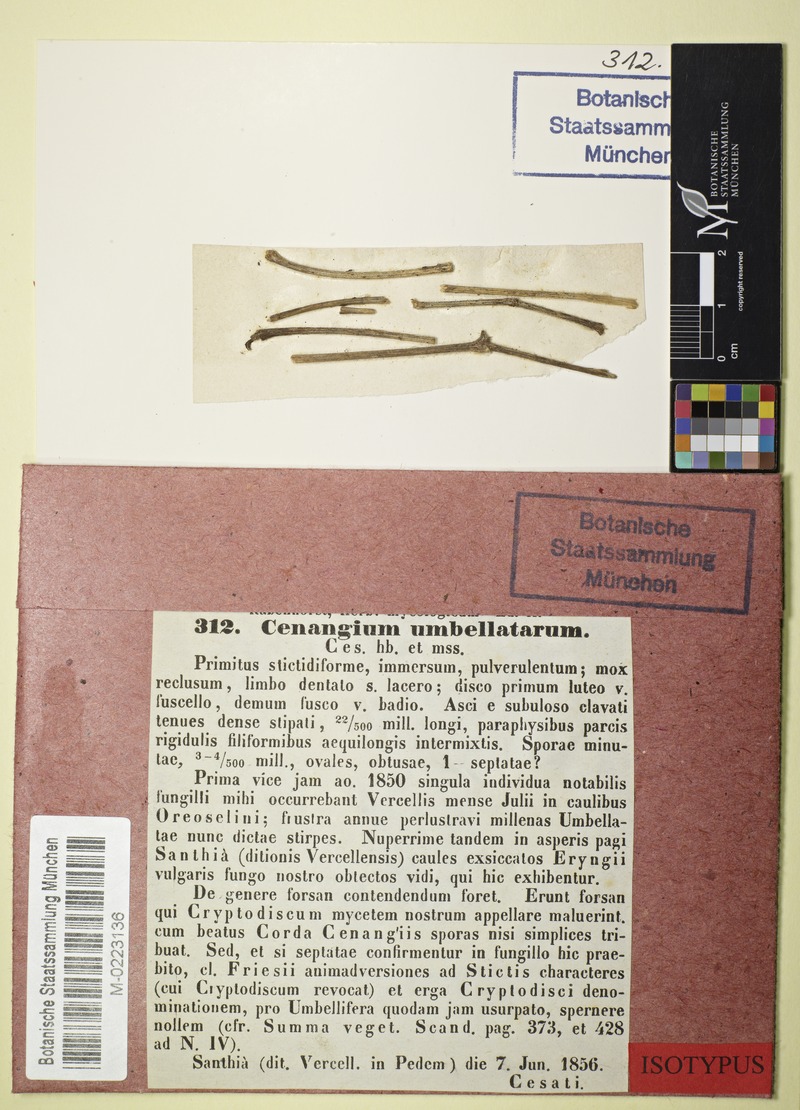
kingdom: Fungi
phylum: Ascomycota
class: Leotiomycetes
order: Helotiales
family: Ploettnerulaceae
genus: Pyrenopeziza
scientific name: Pyrenopeziza umbellatarum
